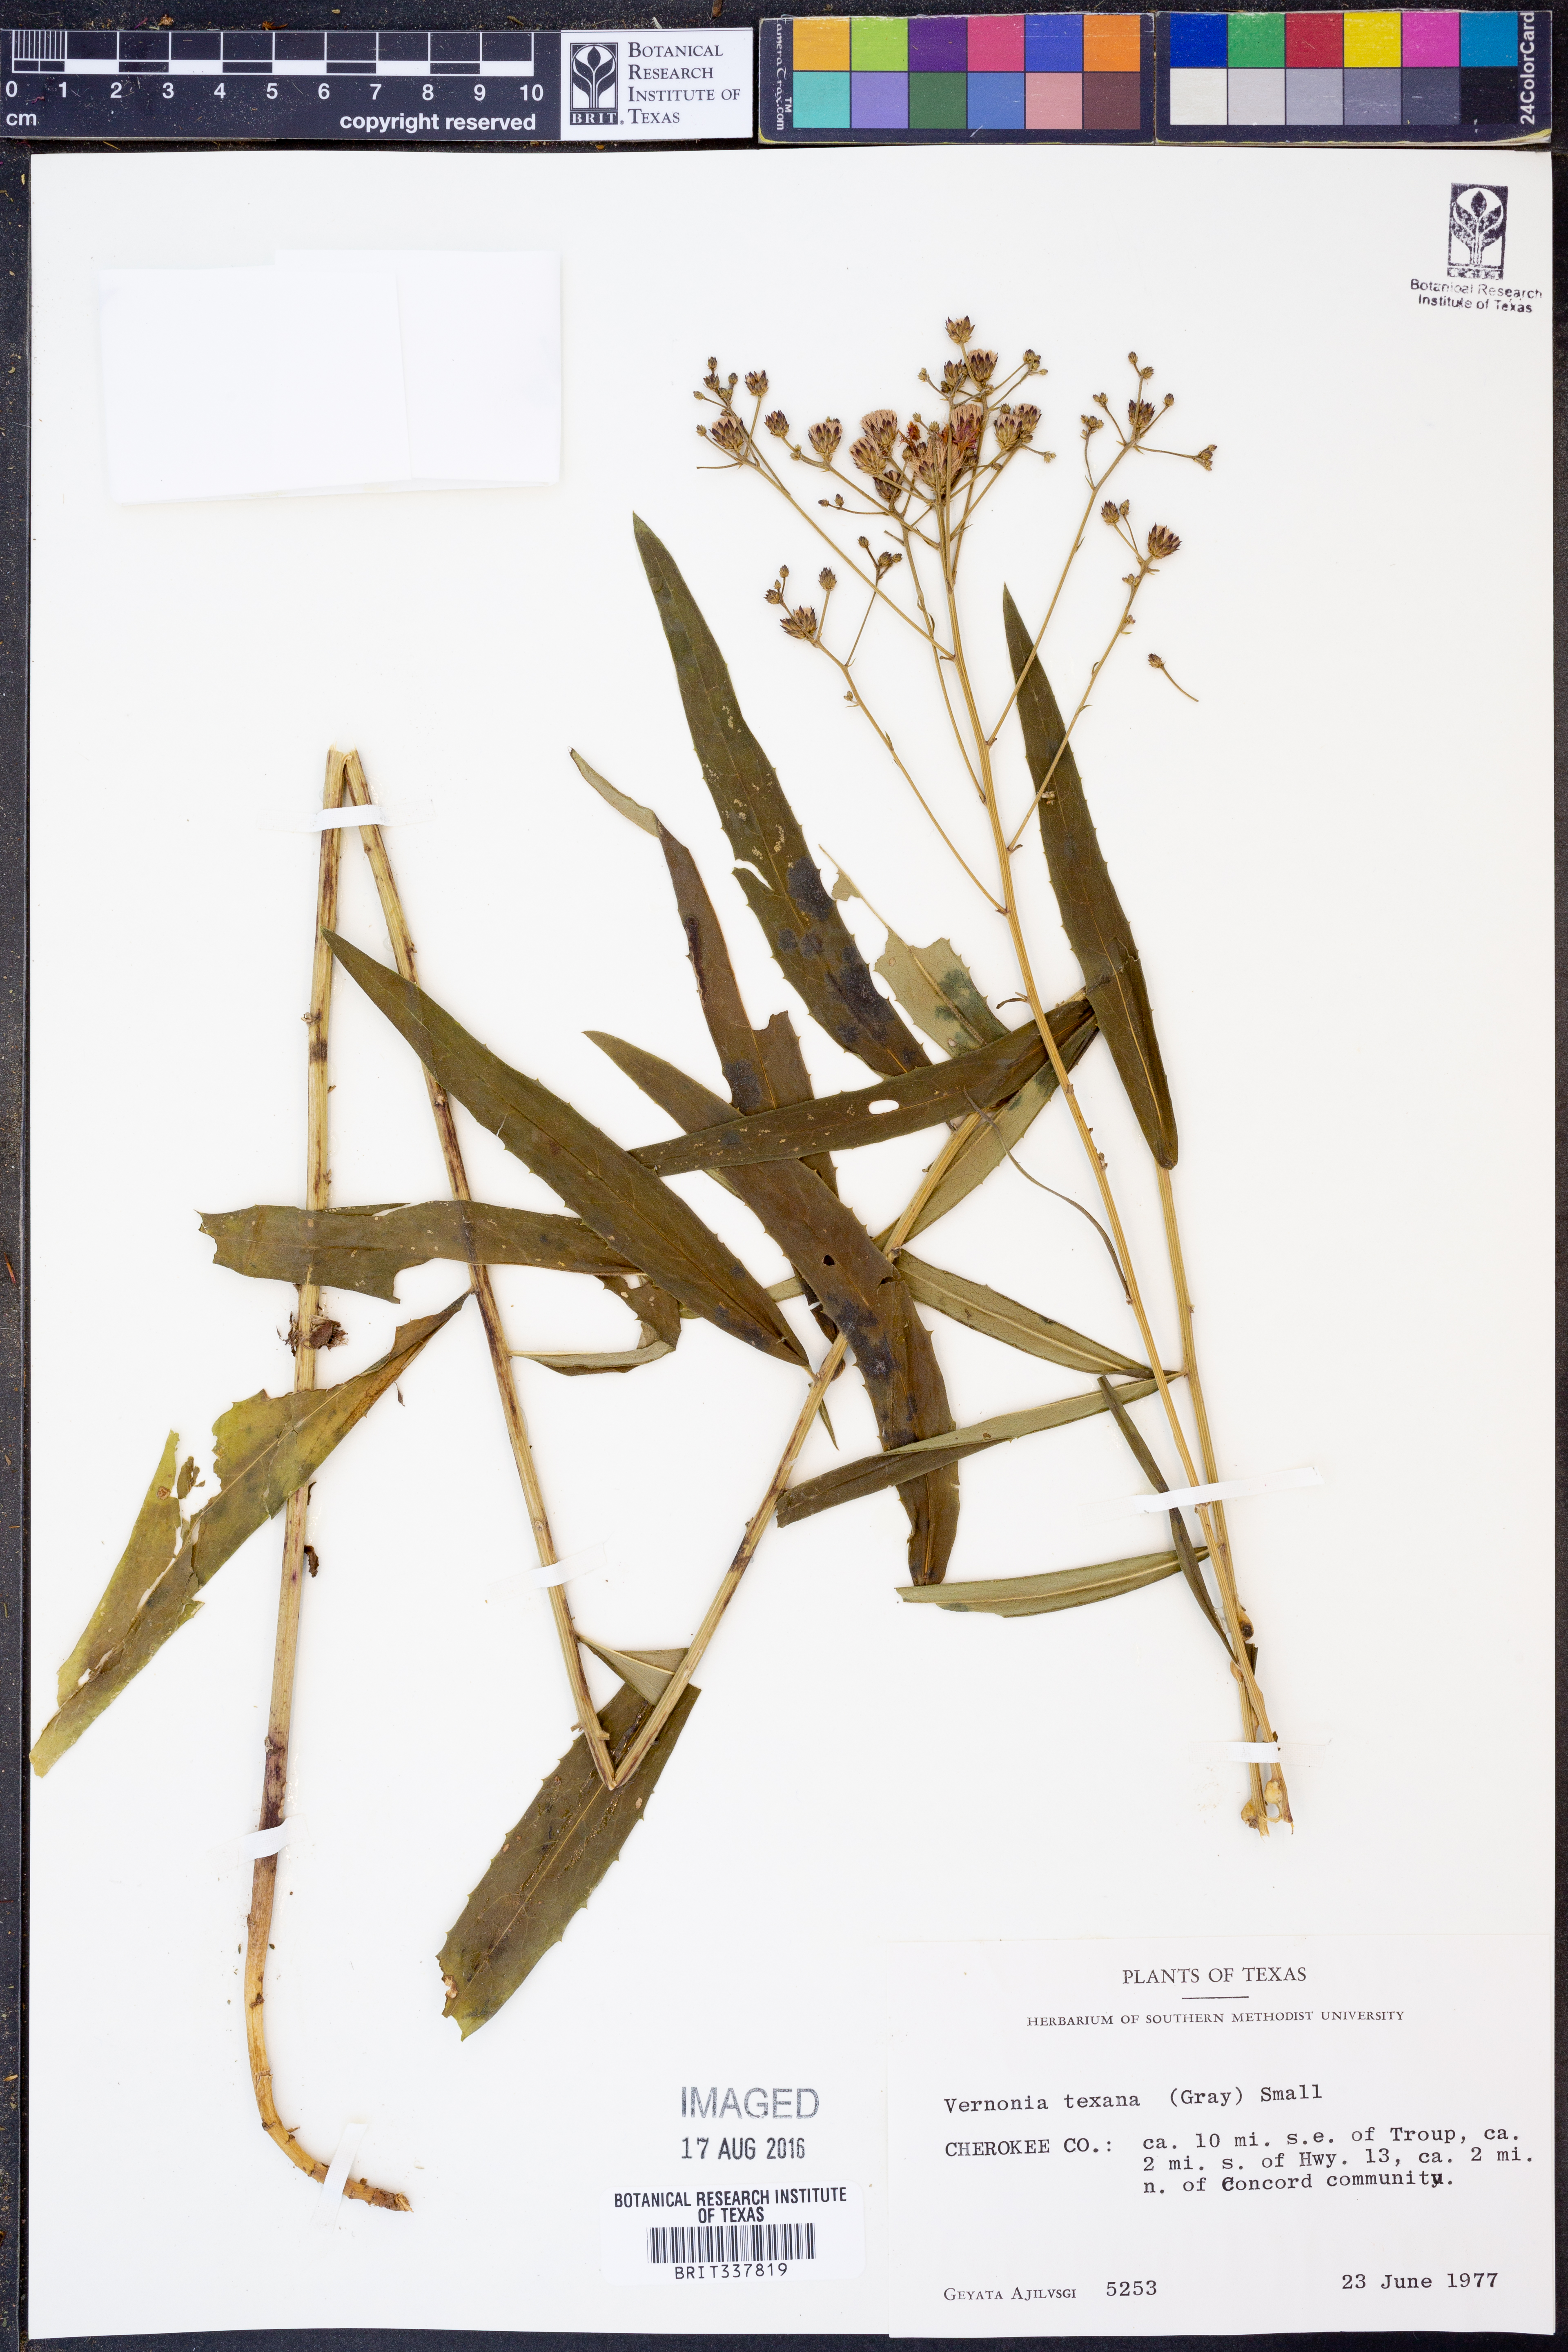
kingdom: Plantae
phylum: Tracheophyta
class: Magnoliopsida
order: Asterales
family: Asteraceae
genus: Vernonia
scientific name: Vernonia texana
